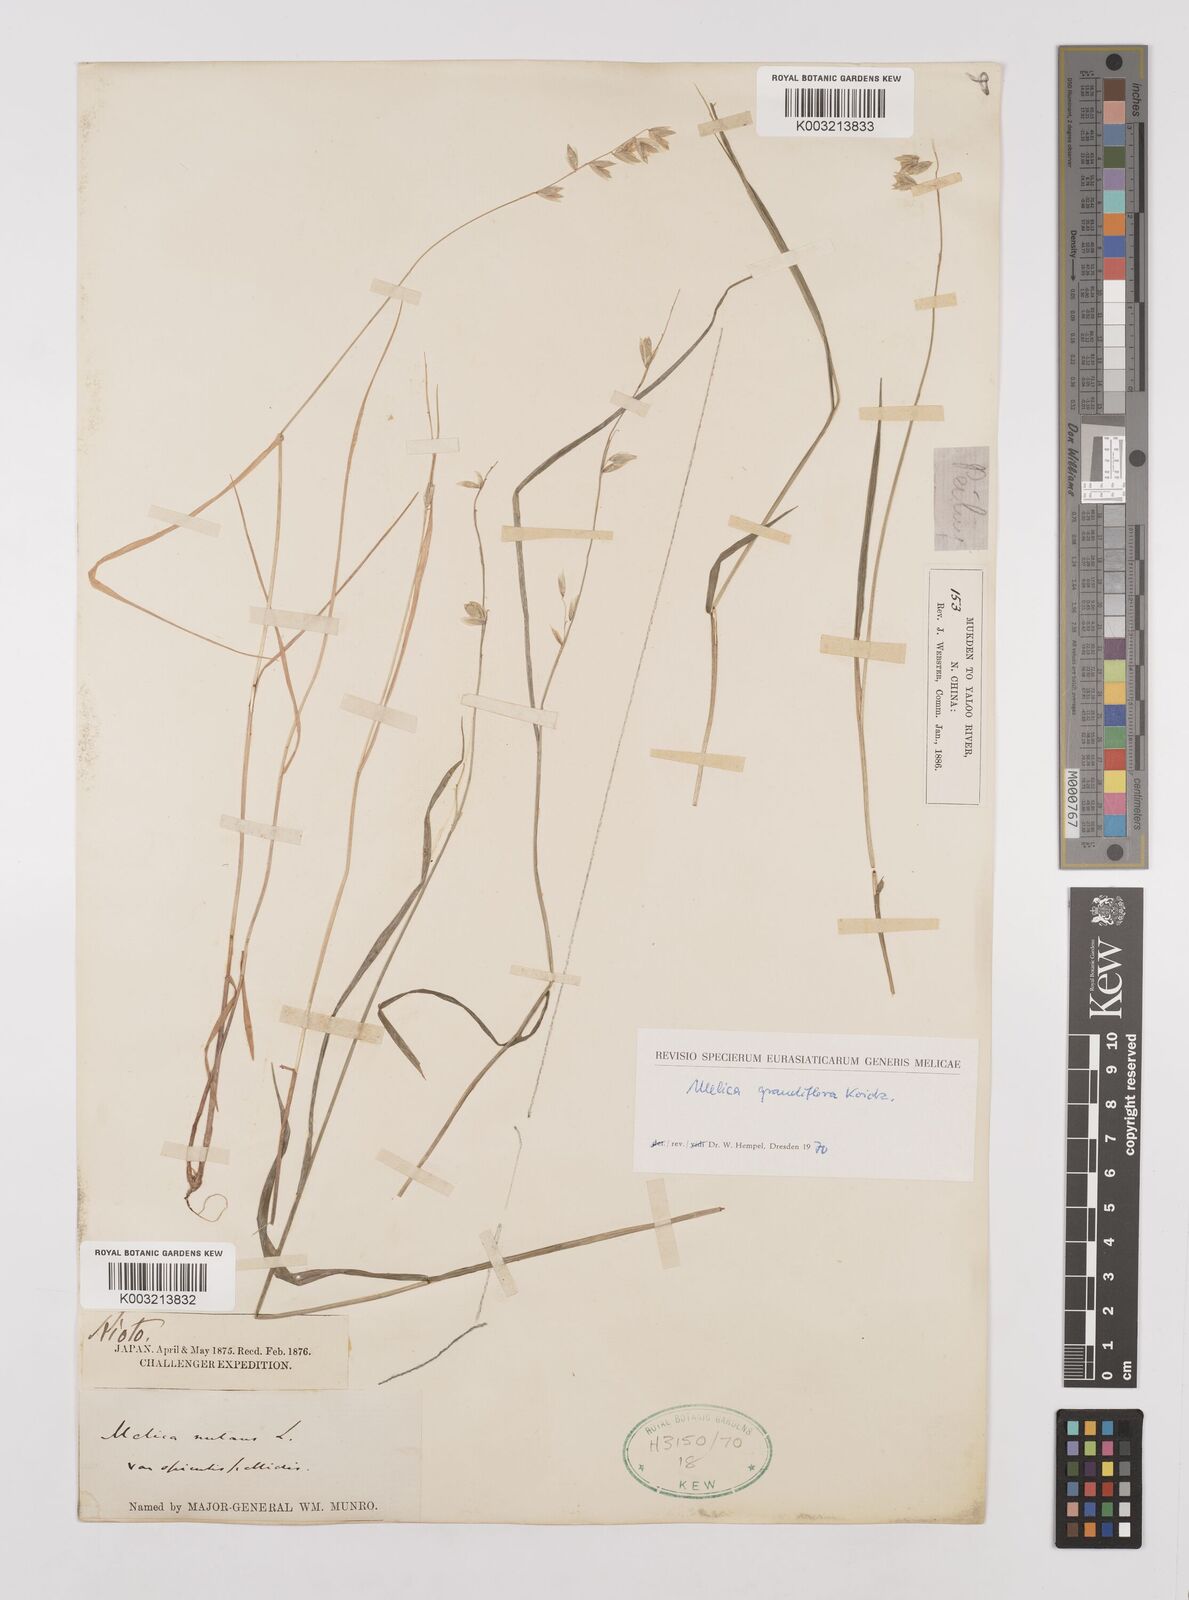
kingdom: Plantae
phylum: Tracheophyta
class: Liliopsida
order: Poales
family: Poaceae
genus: Melica
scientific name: Melica nutans
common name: Mountain melick
